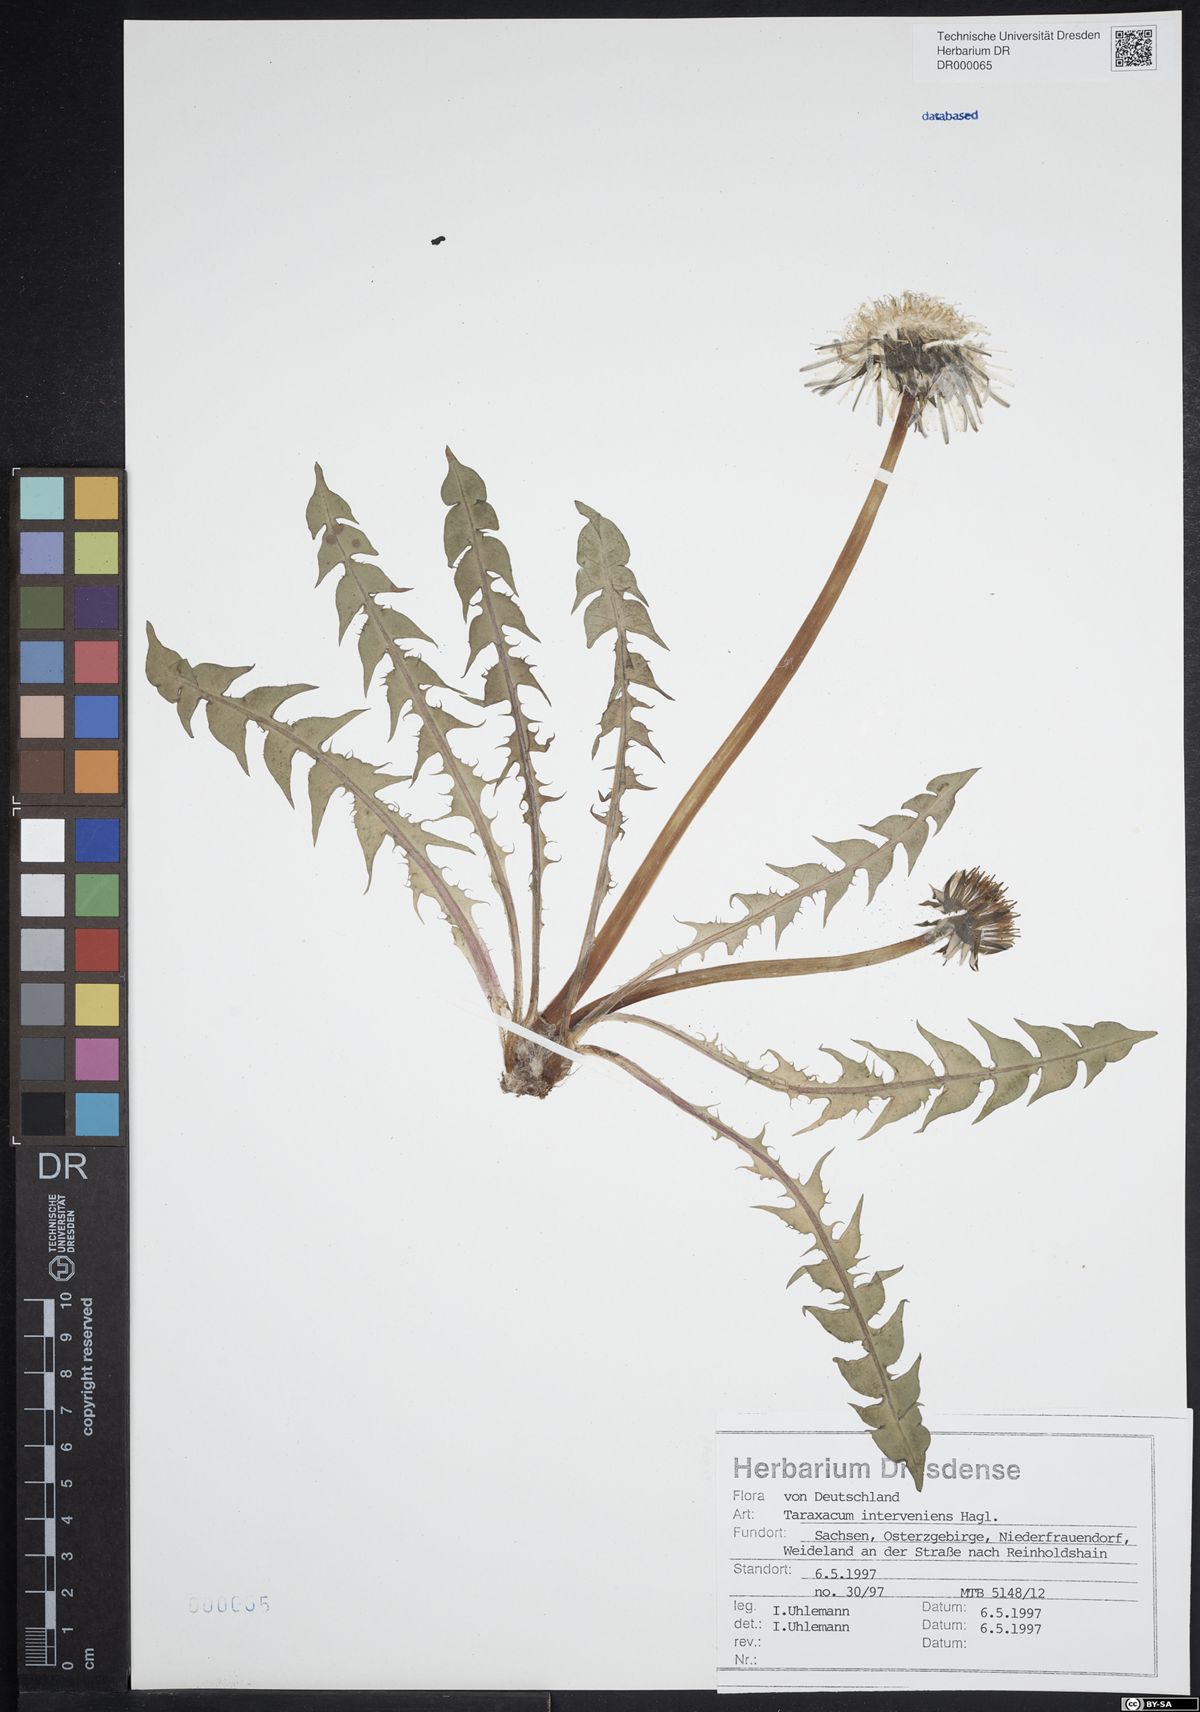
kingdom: Plantae
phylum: Tracheophyta
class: Magnoliopsida
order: Asterales
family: Asteraceae
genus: Taraxacum
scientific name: Taraxacum interveniens
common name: City dandelion
